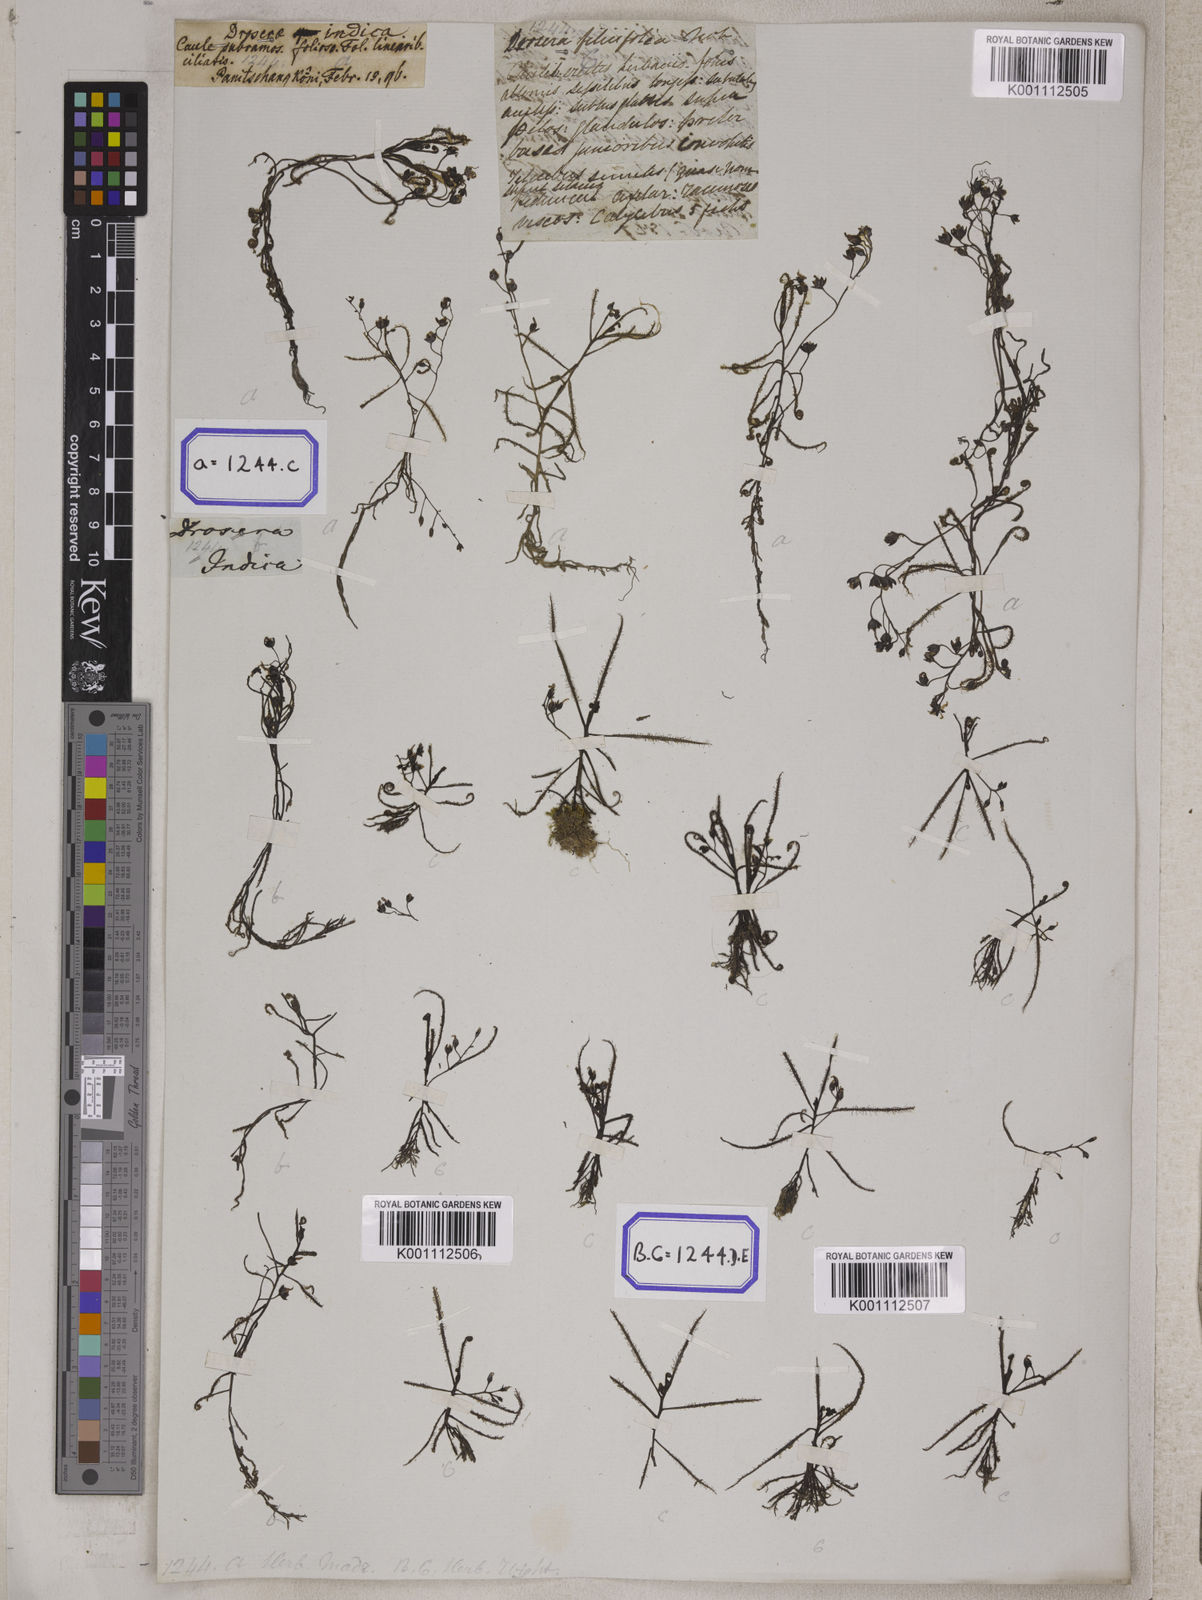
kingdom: Plantae
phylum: Tracheophyta
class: Magnoliopsida
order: Caryophyllales
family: Droseraceae
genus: Drosera
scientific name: Drosera indica
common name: Indian sundew
